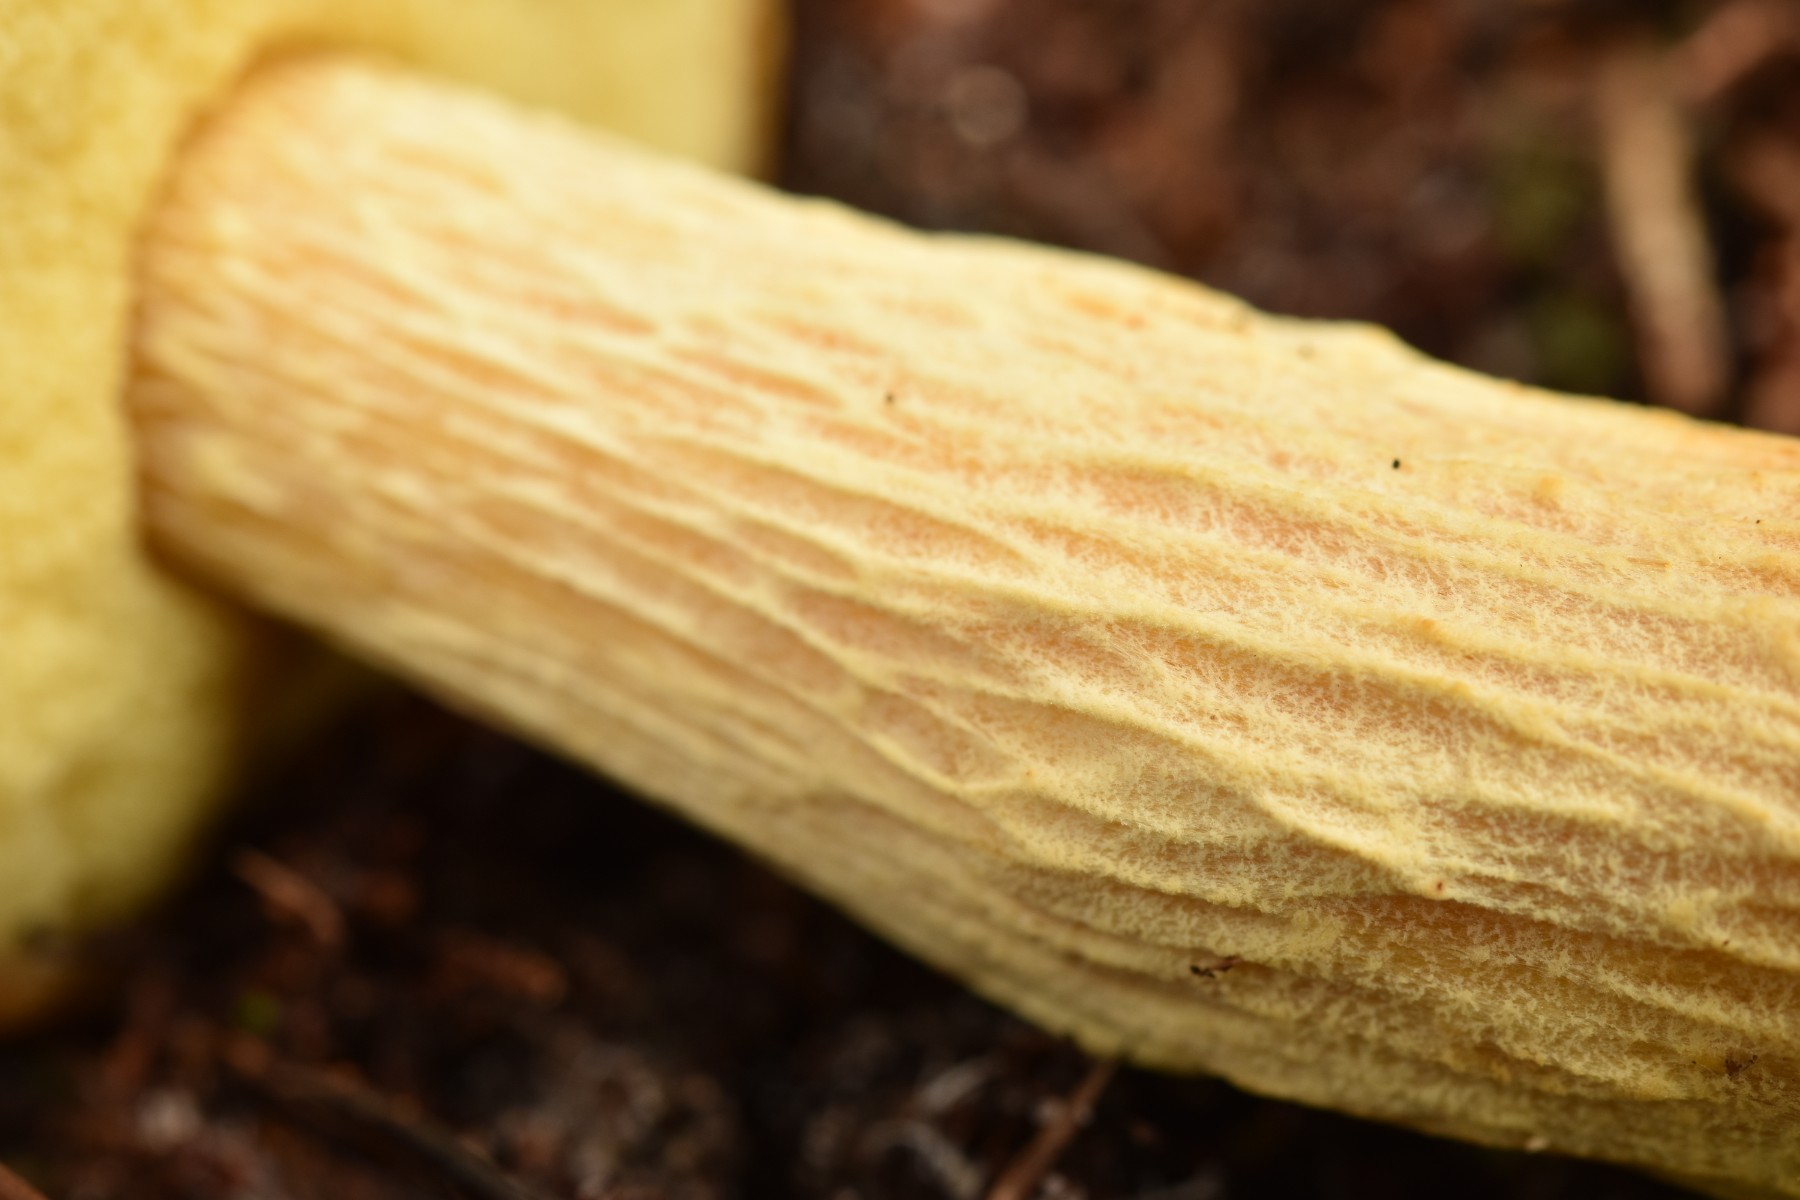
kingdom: Fungi
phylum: Basidiomycota
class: Agaricomycetes
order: Boletales
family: Boletaceae
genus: Aureoboletus
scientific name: Aureoboletus projectellus
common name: ribbestokket rørhat
